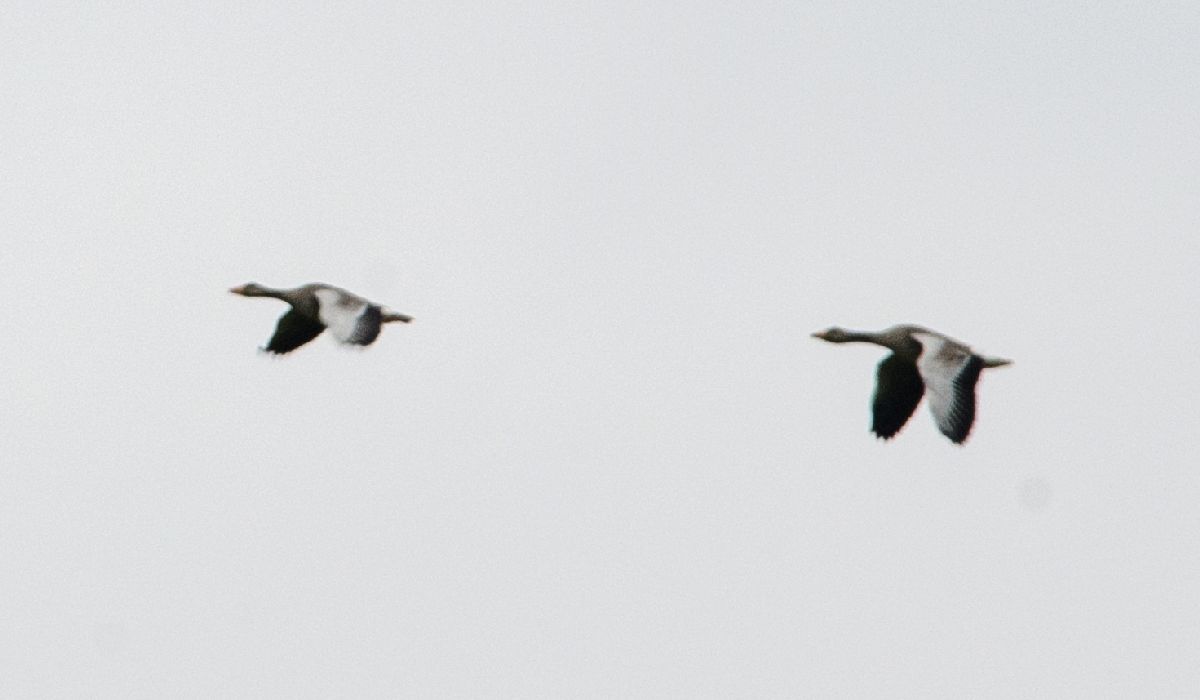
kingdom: Animalia
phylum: Chordata
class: Aves
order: Anseriformes
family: Anatidae
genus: Anser
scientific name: Anser anser
